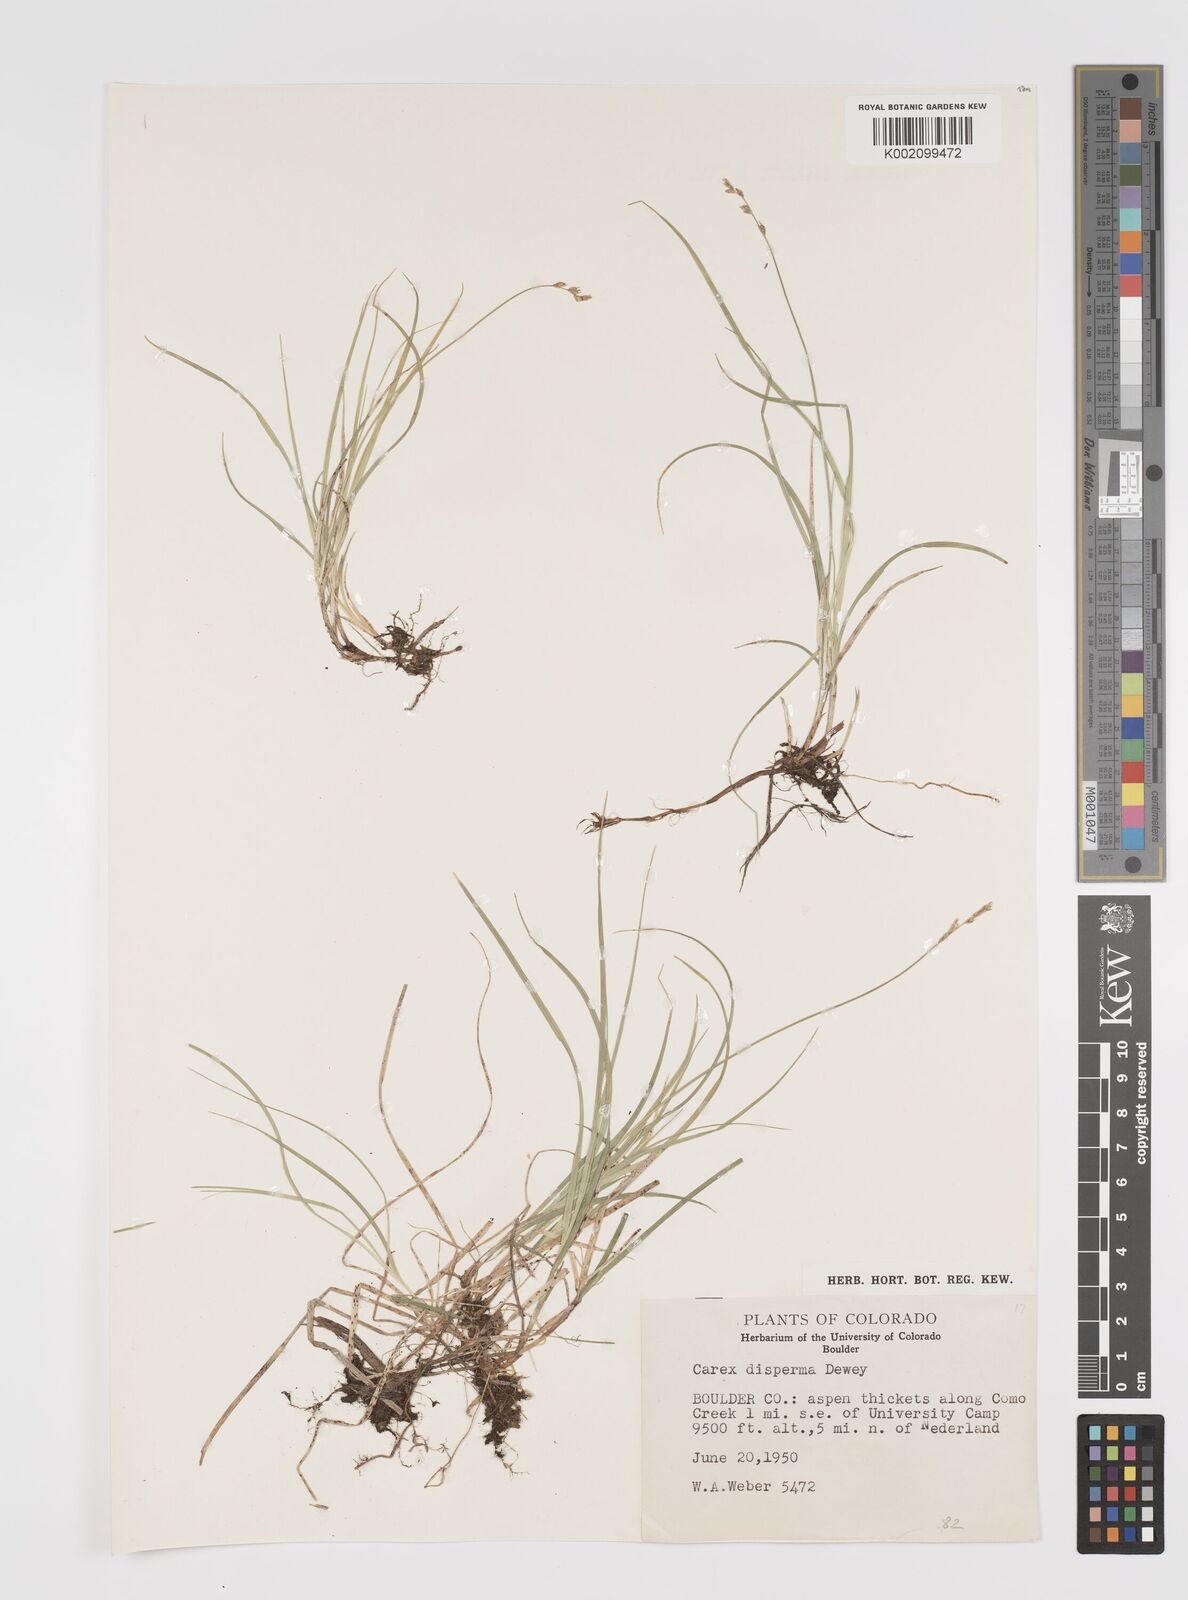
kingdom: Plantae
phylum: Tracheophyta
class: Liliopsida
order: Poales
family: Cyperaceae
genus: Carex
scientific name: Carex trisperma
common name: Three-seeded sedge
